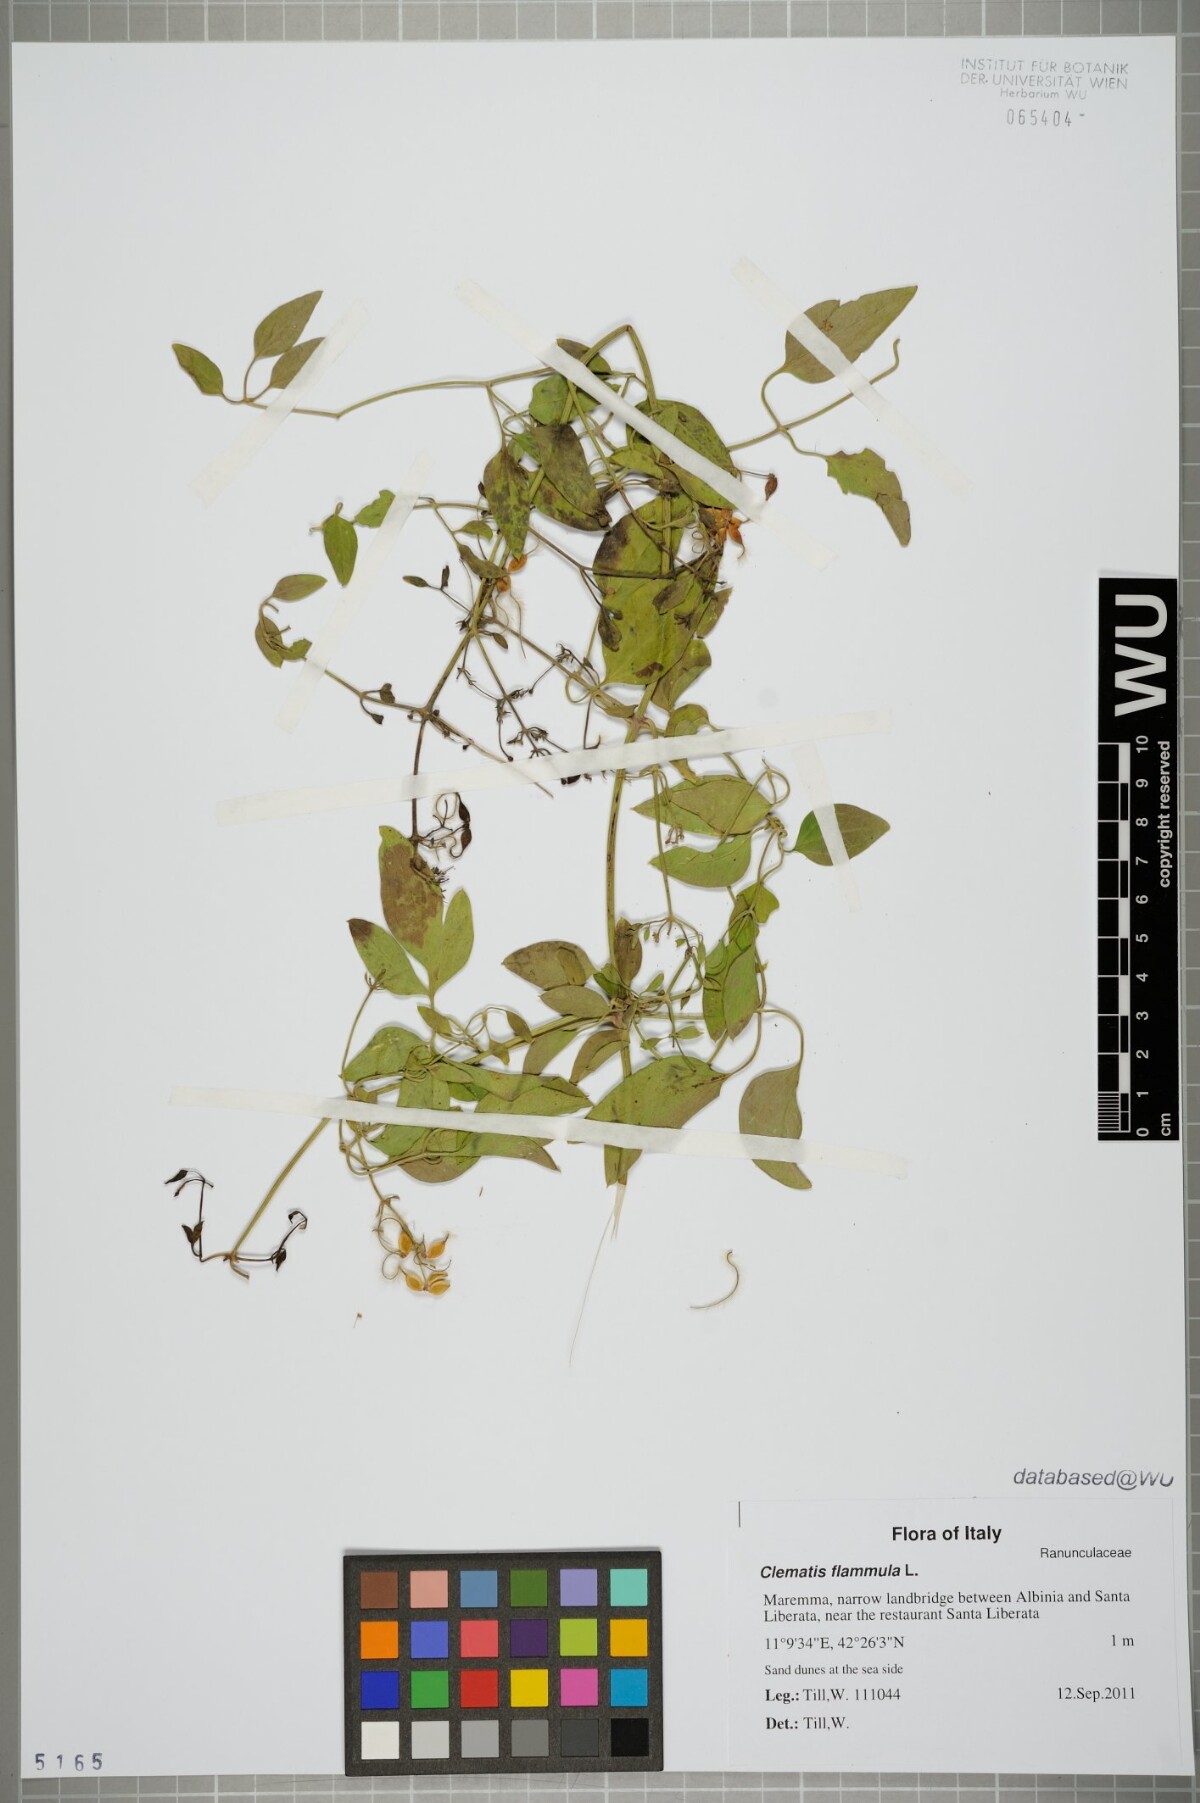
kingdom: Plantae
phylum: Tracheophyta
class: Magnoliopsida
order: Ranunculales
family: Ranunculaceae
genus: Clematis
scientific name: Clematis flammula
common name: Virgin's-bower
